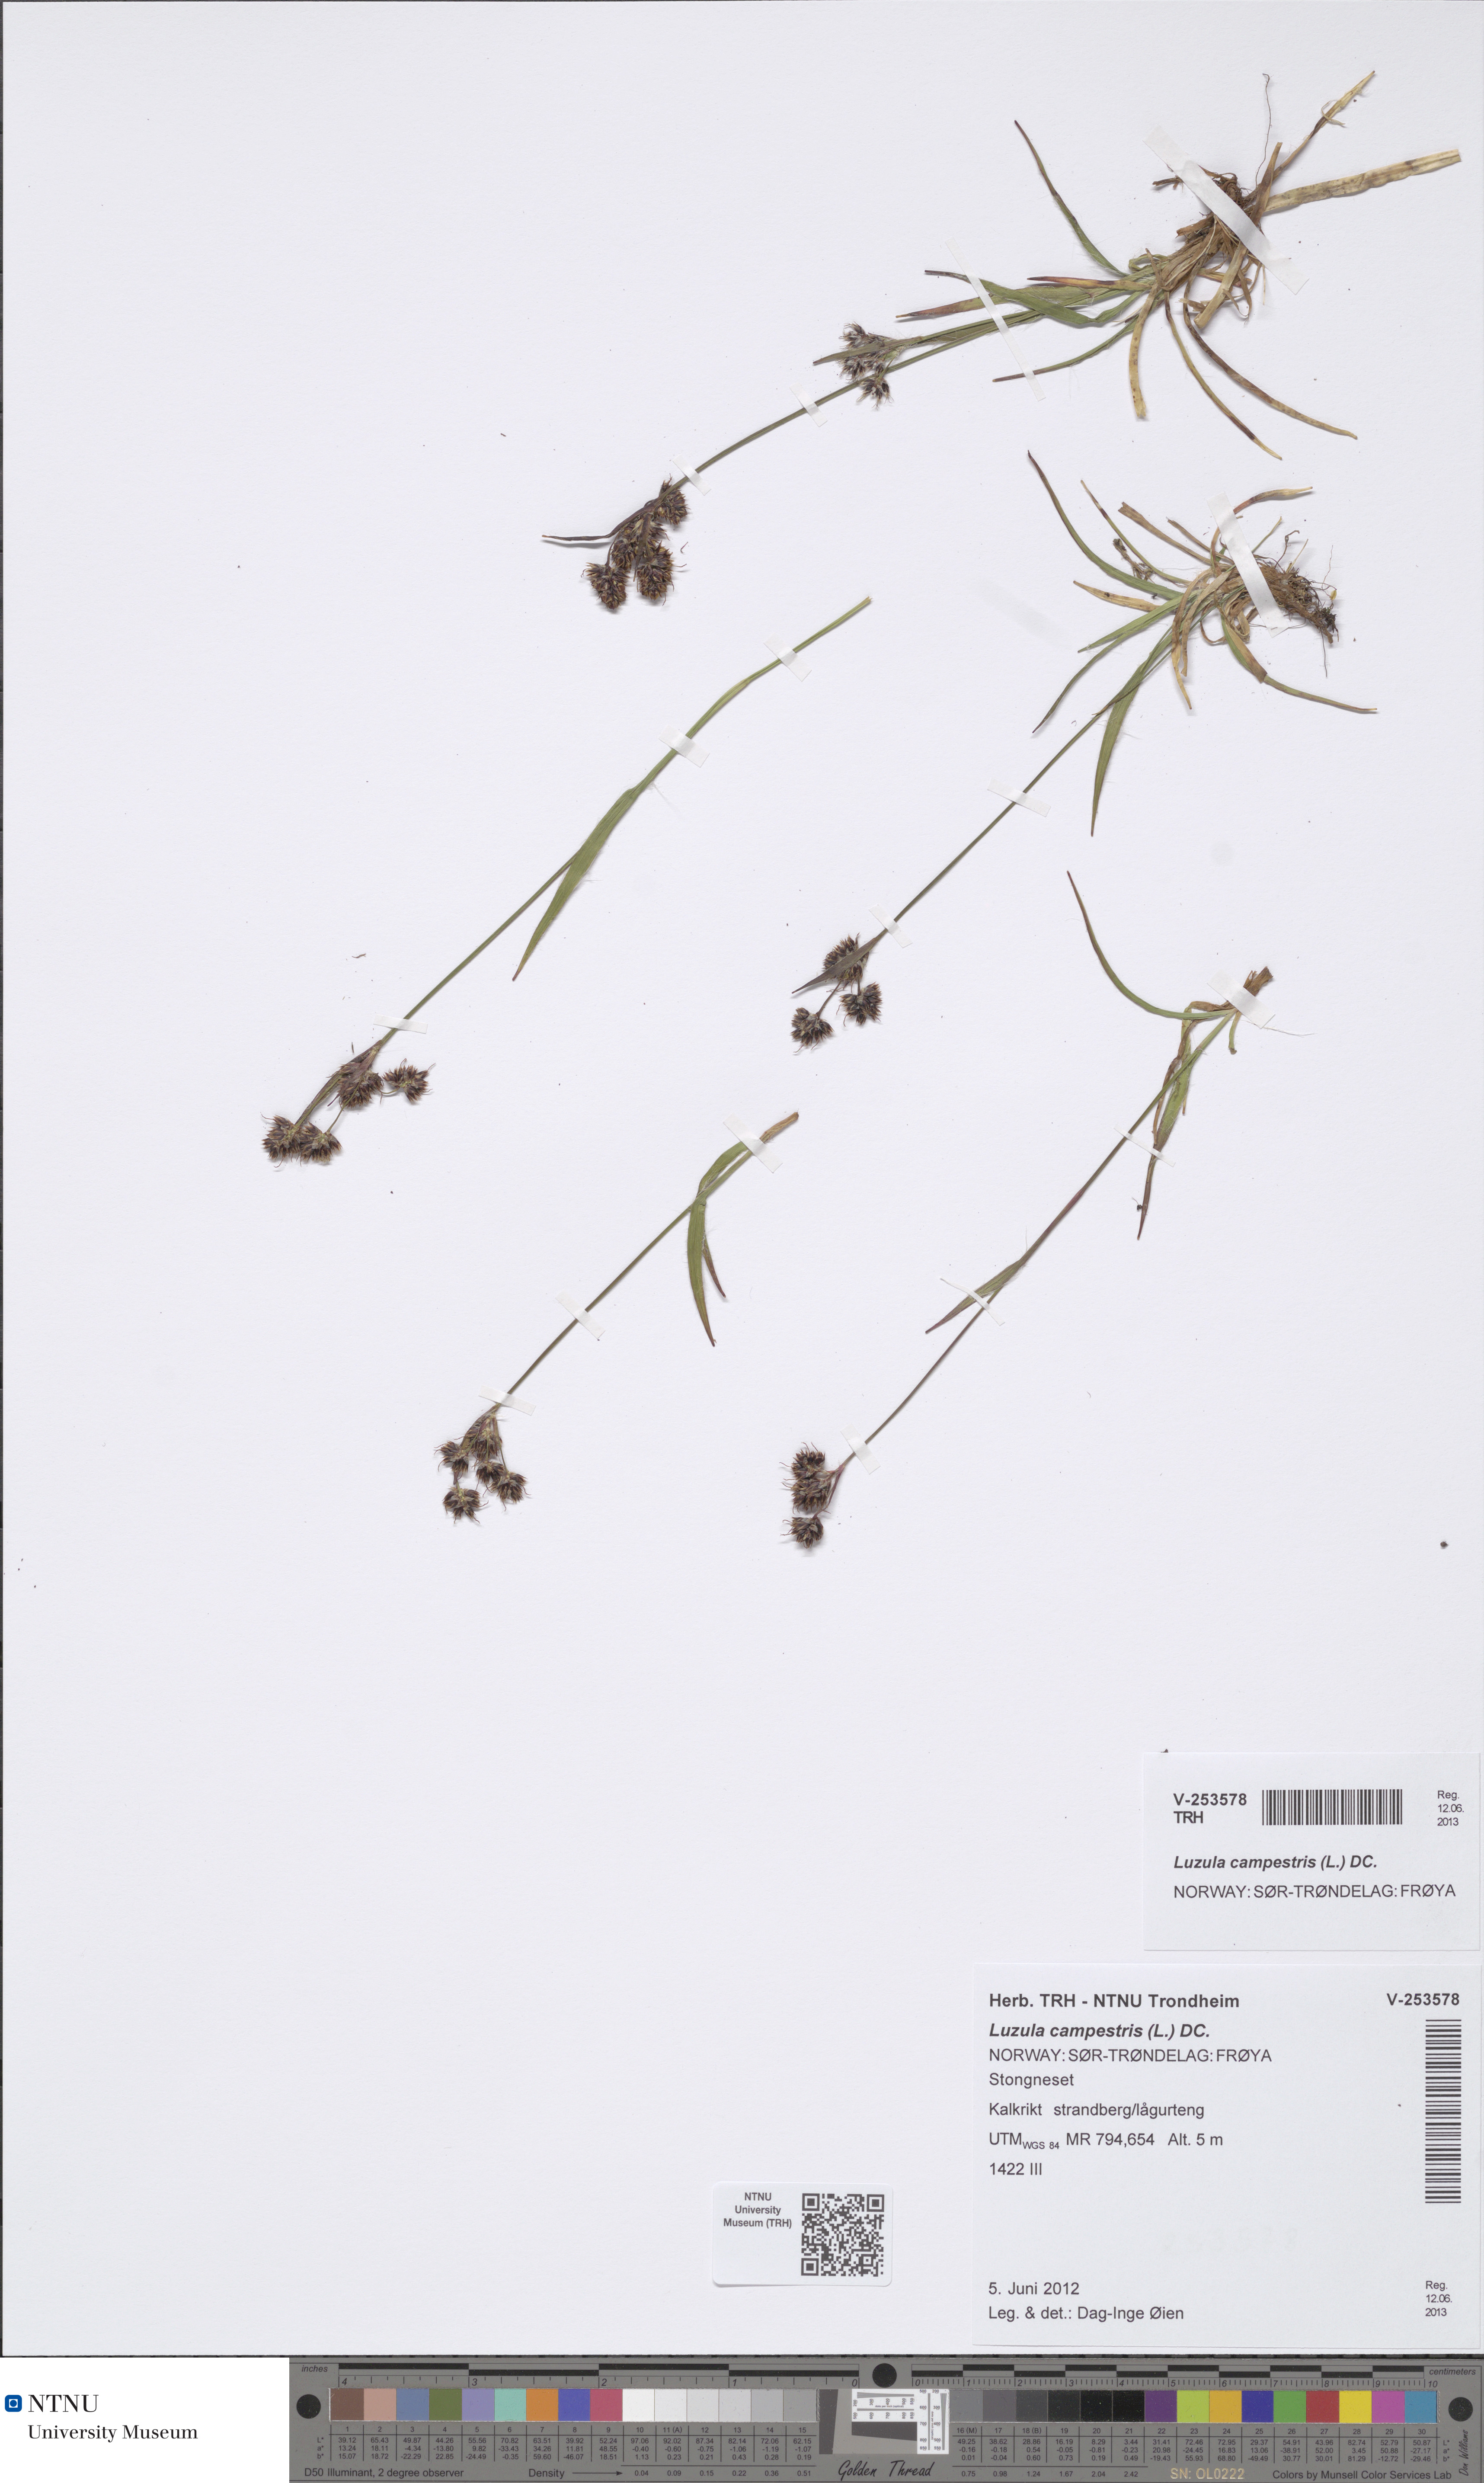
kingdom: Plantae
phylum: Tracheophyta
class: Liliopsida
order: Poales
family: Juncaceae
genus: Luzula
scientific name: Luzula campestris
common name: Field wood-rush
